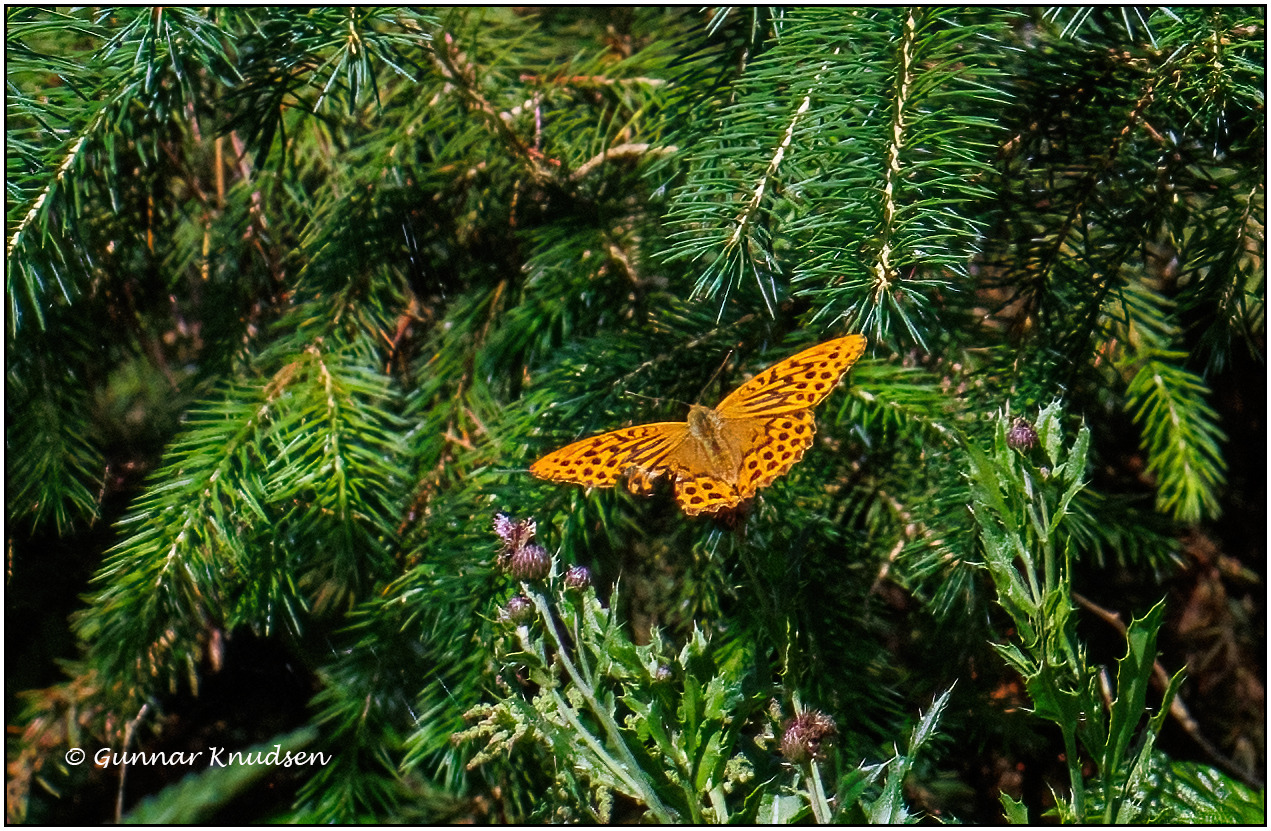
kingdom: Animalia
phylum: Arthropoda
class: Insecta
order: Lepidoptera
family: Nymphalidae
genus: Argynnis
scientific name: Argynnis paphia
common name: Kejserkåbe
